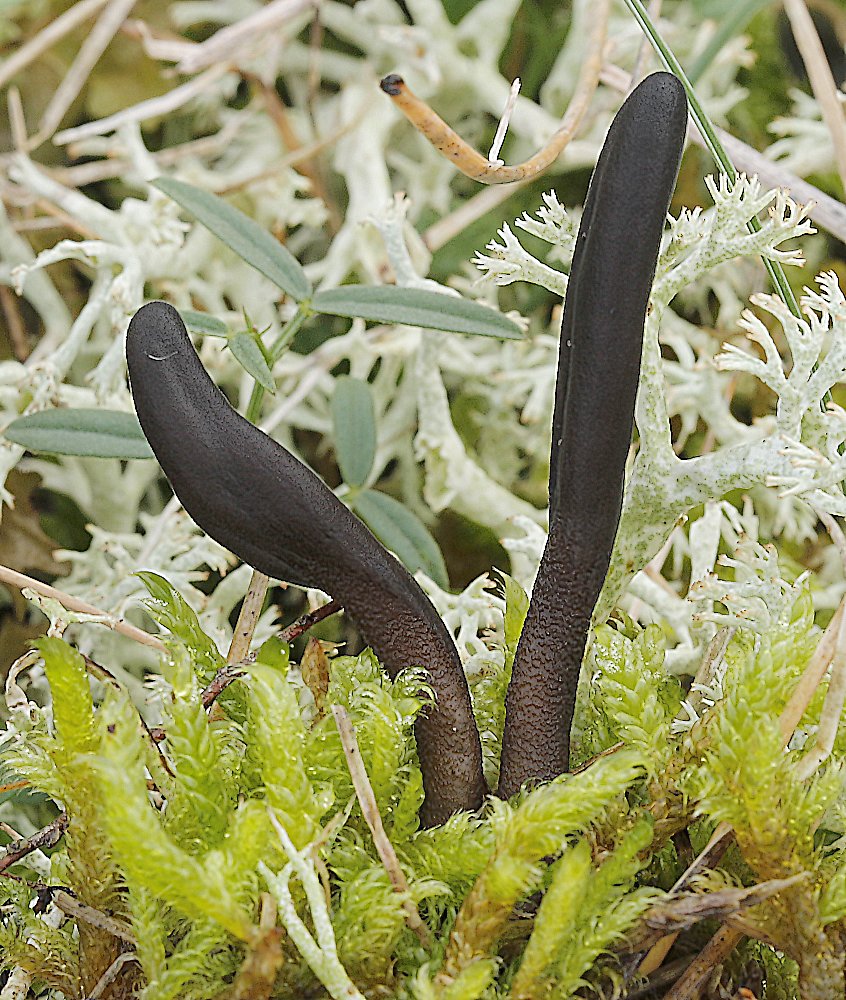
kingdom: Fungi
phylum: Ascomycota
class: Geoglossomycetes
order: Geoglossales
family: Geoglossaceae
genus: Hemileucoglossum
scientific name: Hemileucoglossum elongatum
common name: småsporet jordtunge
